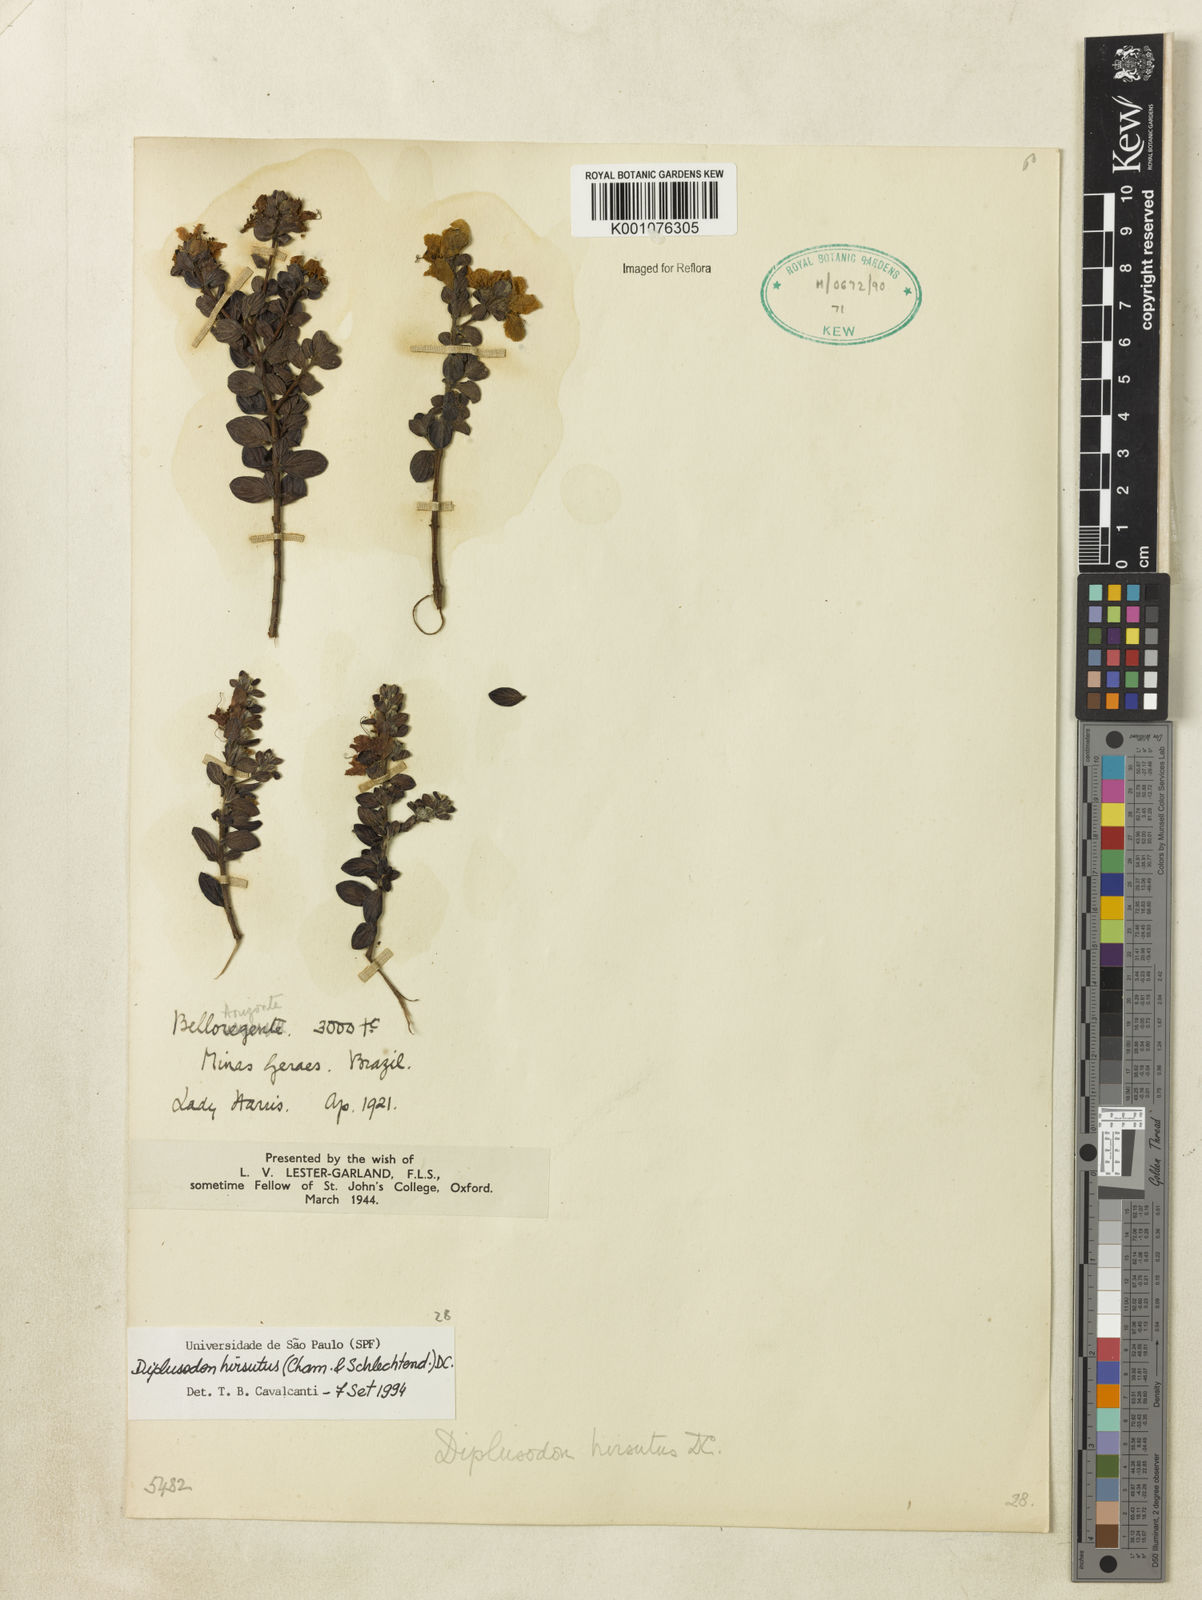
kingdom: Plantae
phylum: Tracheophyta
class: Magnoliopsida
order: Myrtales
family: Lythraceae
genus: Diplusodon
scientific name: Diplusodon hirsutus
